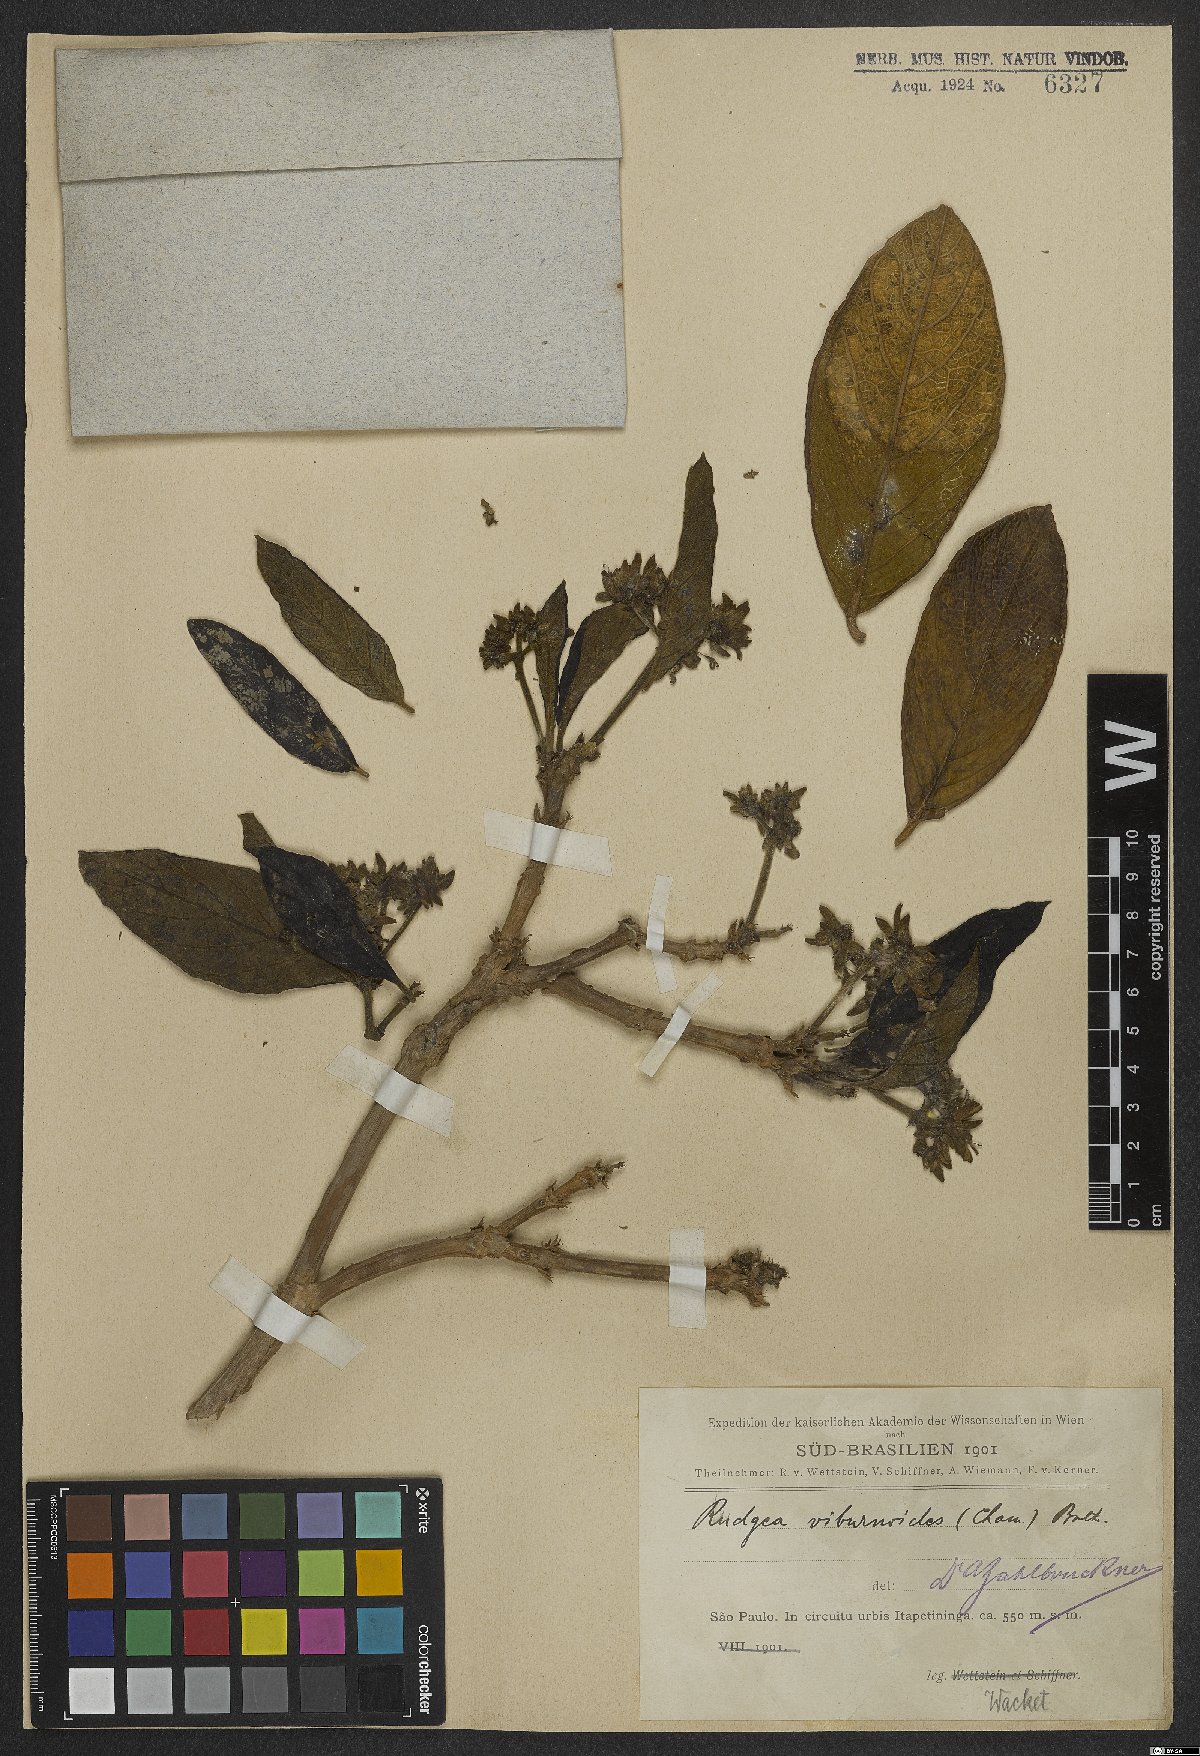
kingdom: Plantae
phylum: Tracheophyta
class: Magnoliopsida
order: Gentianales
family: Rubiaceae
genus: Rudgea
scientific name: Rudgea viburnoides
